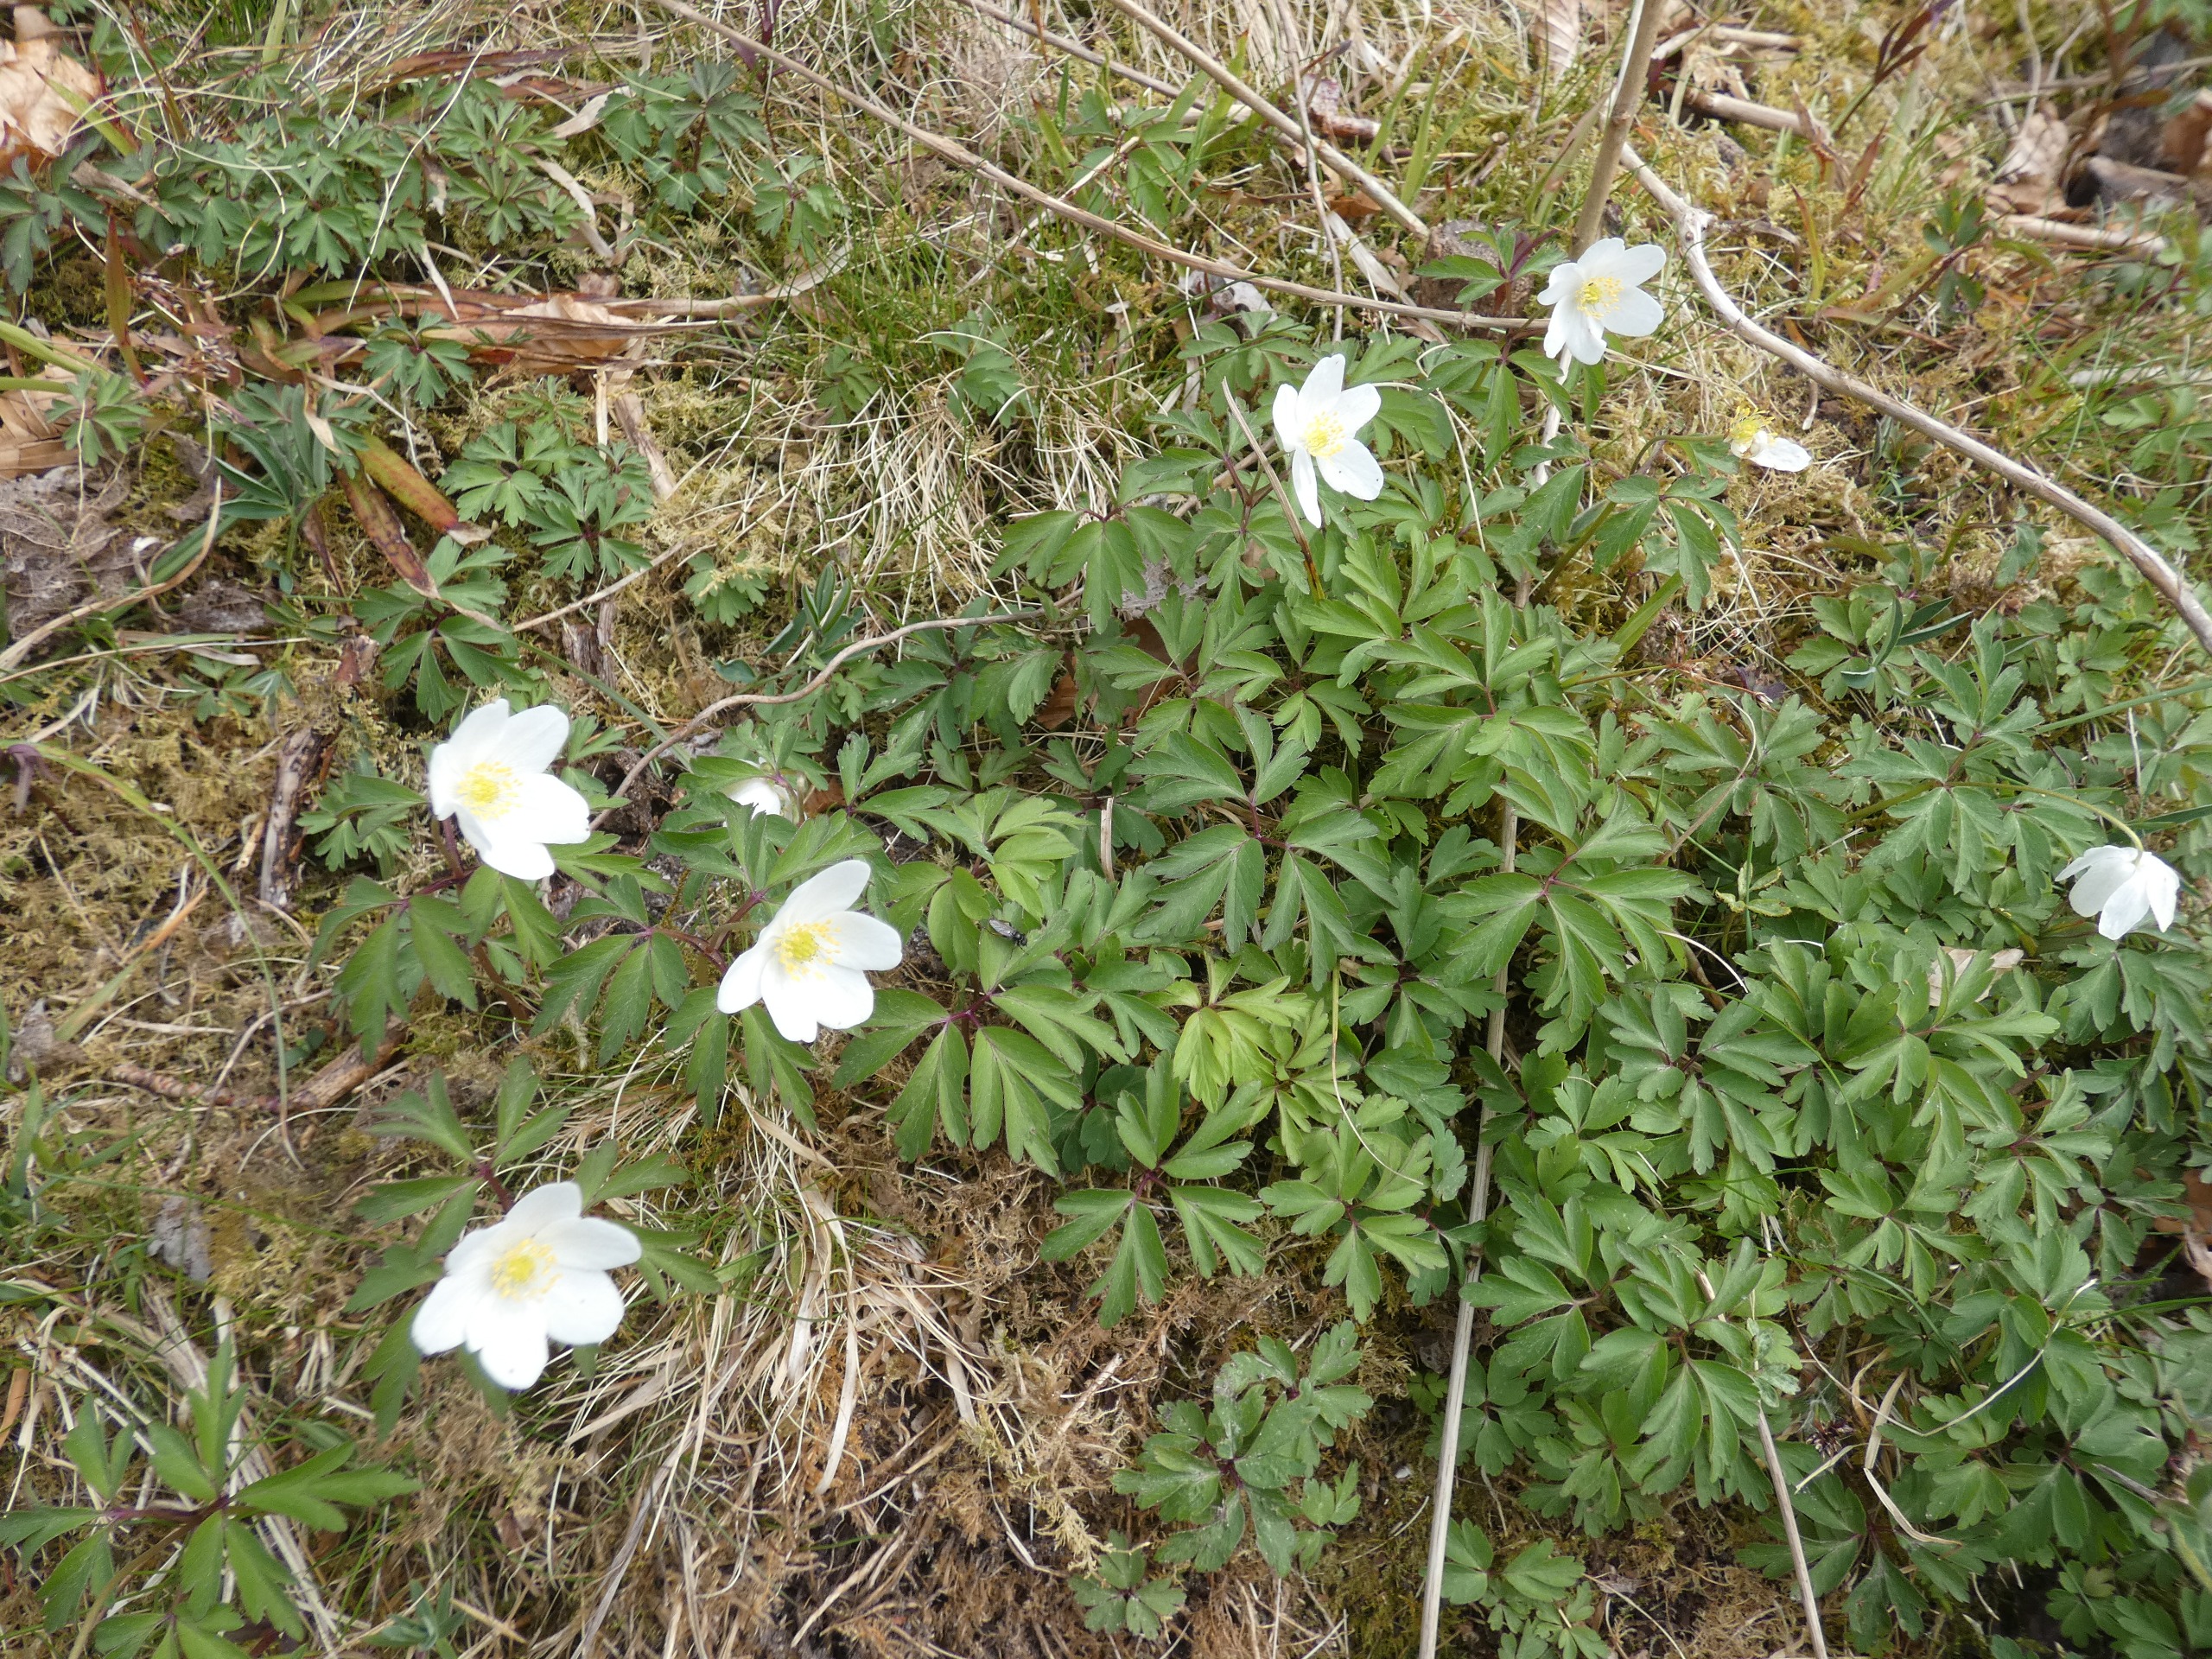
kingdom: Plantae
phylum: Tracheophyta
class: Magnoliopsida
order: Ranunculales
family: Ranunculaceae
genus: Anemone
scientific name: Anemone nemorosa
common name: Hvid anemone
